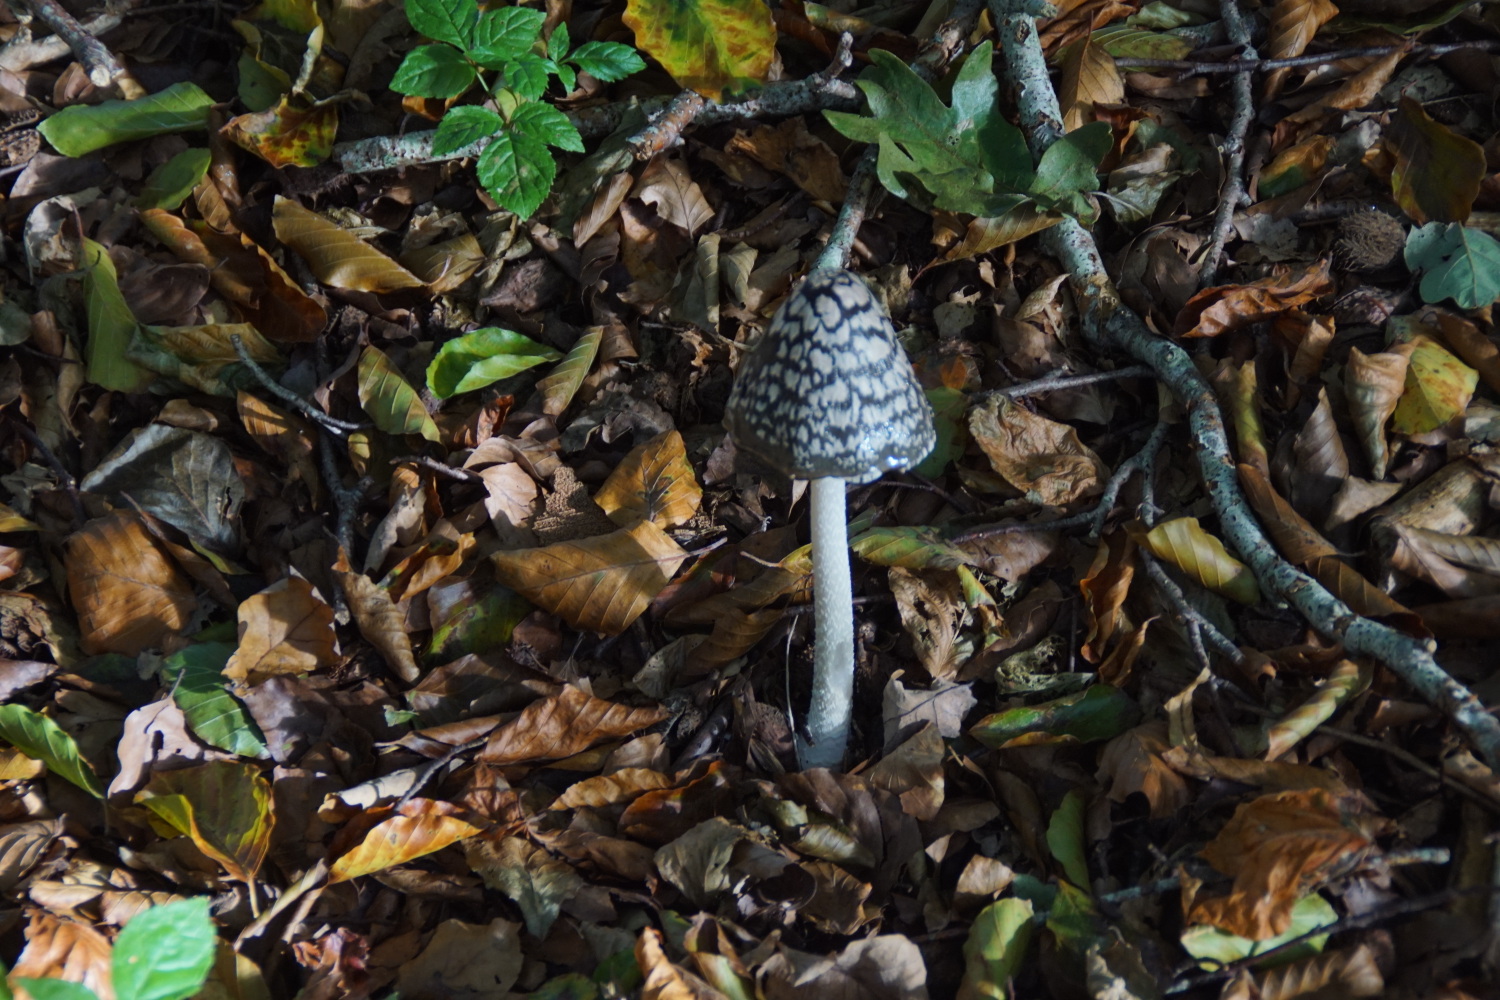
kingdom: Fungi
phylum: Basidiomycota
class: Agaricomycetes
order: Agaricales
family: Psathyrellaceae
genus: Coprinopsis
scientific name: Coprinopsis picacea
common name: skade-blækhat
